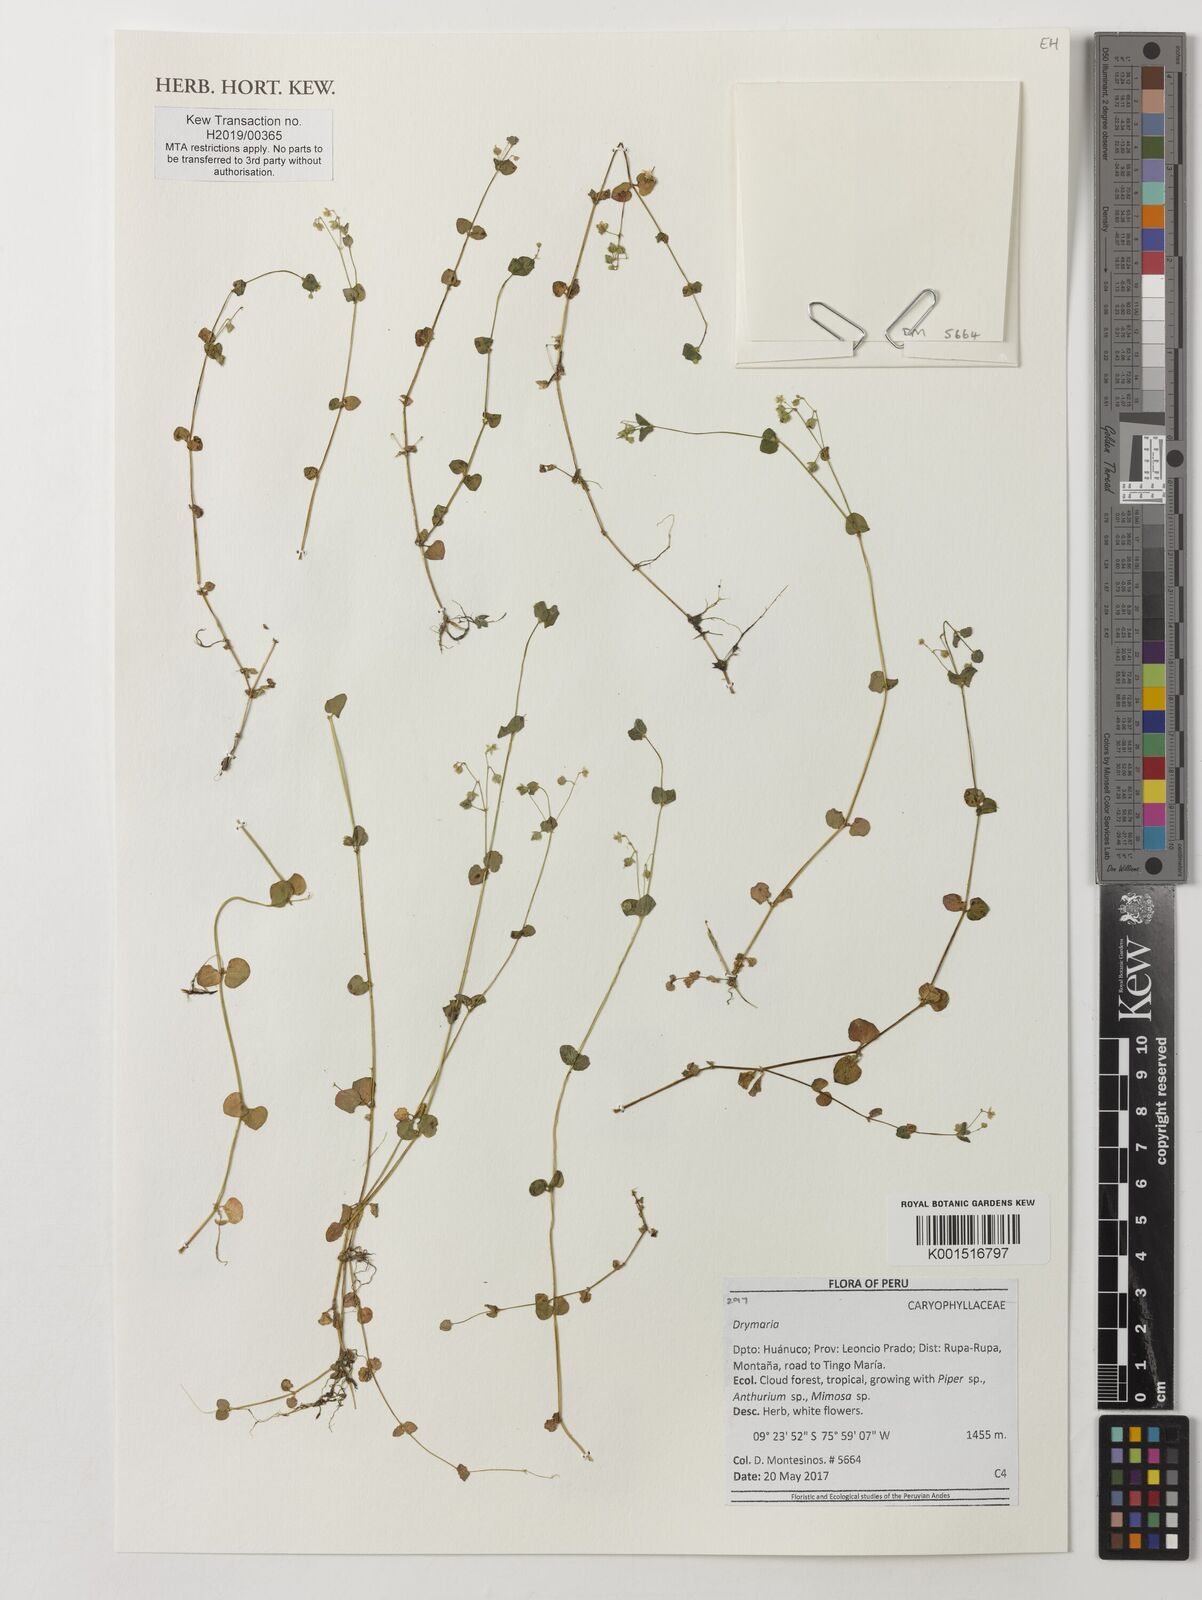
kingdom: Plantae
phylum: Tracheophyta
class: Magnoliopsida
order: Caryophyllales
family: Caryophyllaceae
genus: Drymaria
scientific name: Drymaria
